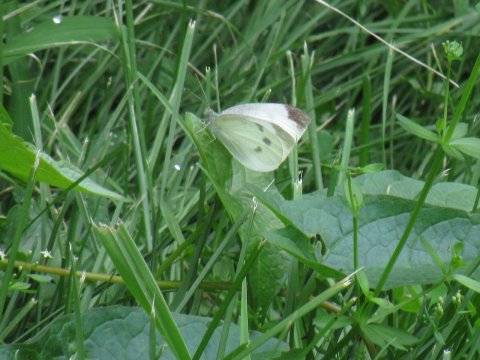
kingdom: Animalia
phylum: Arthropoda
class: Insecta
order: Lepidoptera
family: Pieridae
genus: Pieris
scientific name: Pieris rapae
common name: Cabbage White
